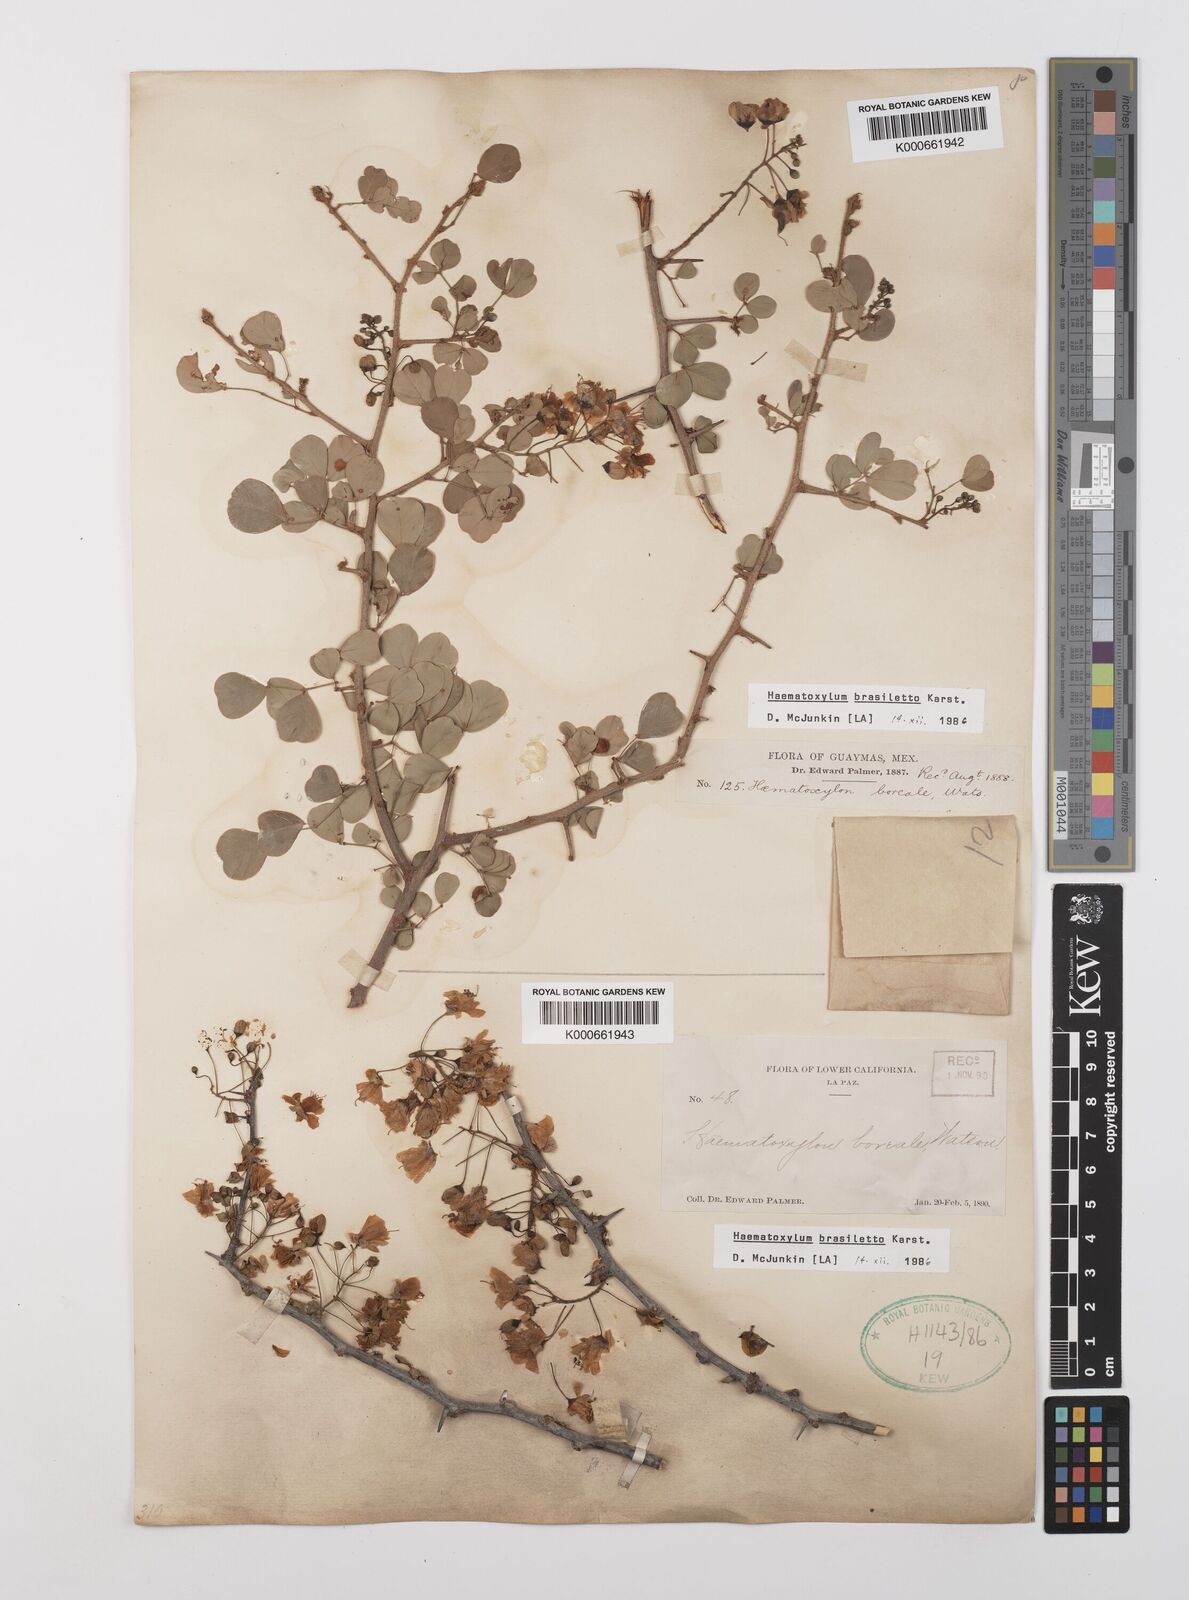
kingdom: Plantae
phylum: Tracheophyta
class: Magnoliopsida
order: Fabales
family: Fabaceae
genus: Haematoxylum
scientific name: Haematoxylum brasiletto
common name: Peachwood
